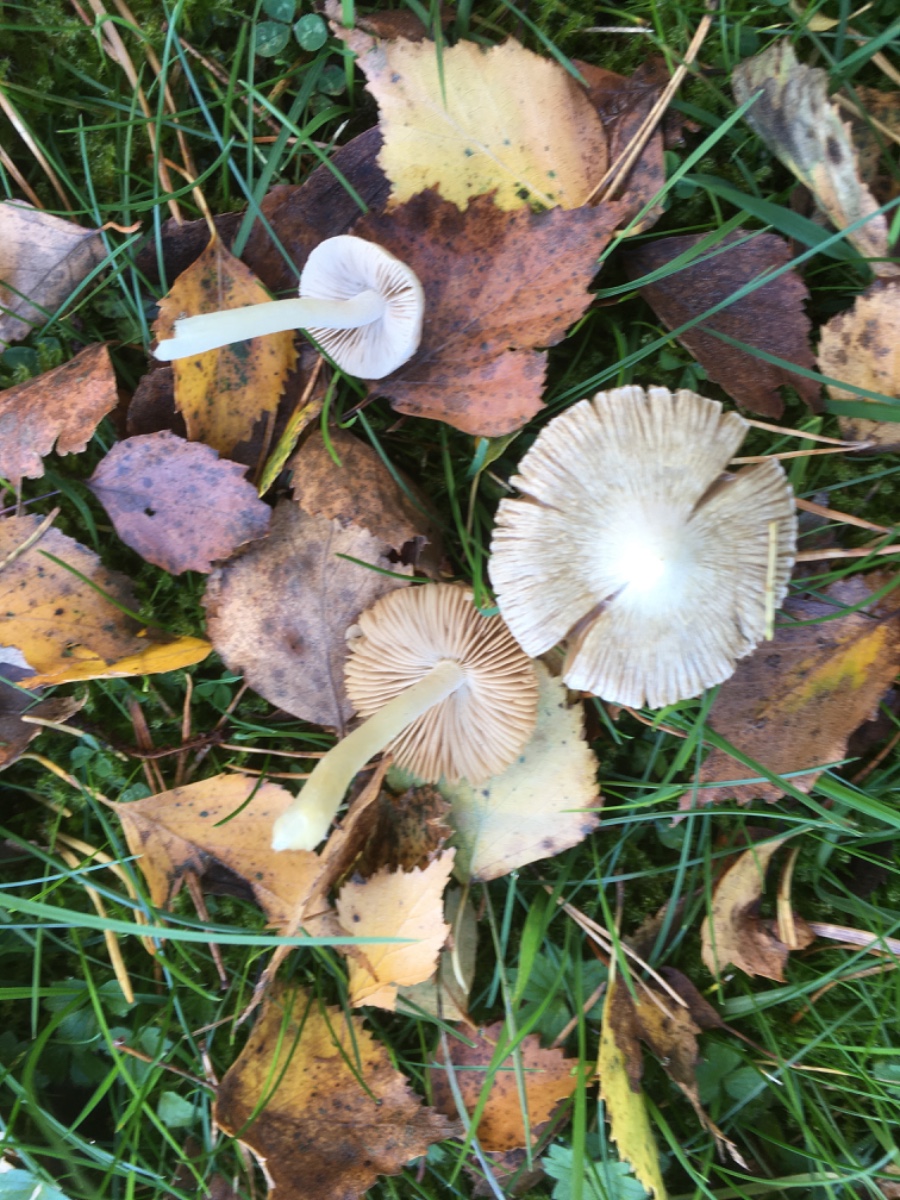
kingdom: Fungi
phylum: Basidiomycota
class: Agaricomycetes
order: Agaricales
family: Inocybaceae
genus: Inocybe
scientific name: Inocybe
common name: almindelig trævlhat
